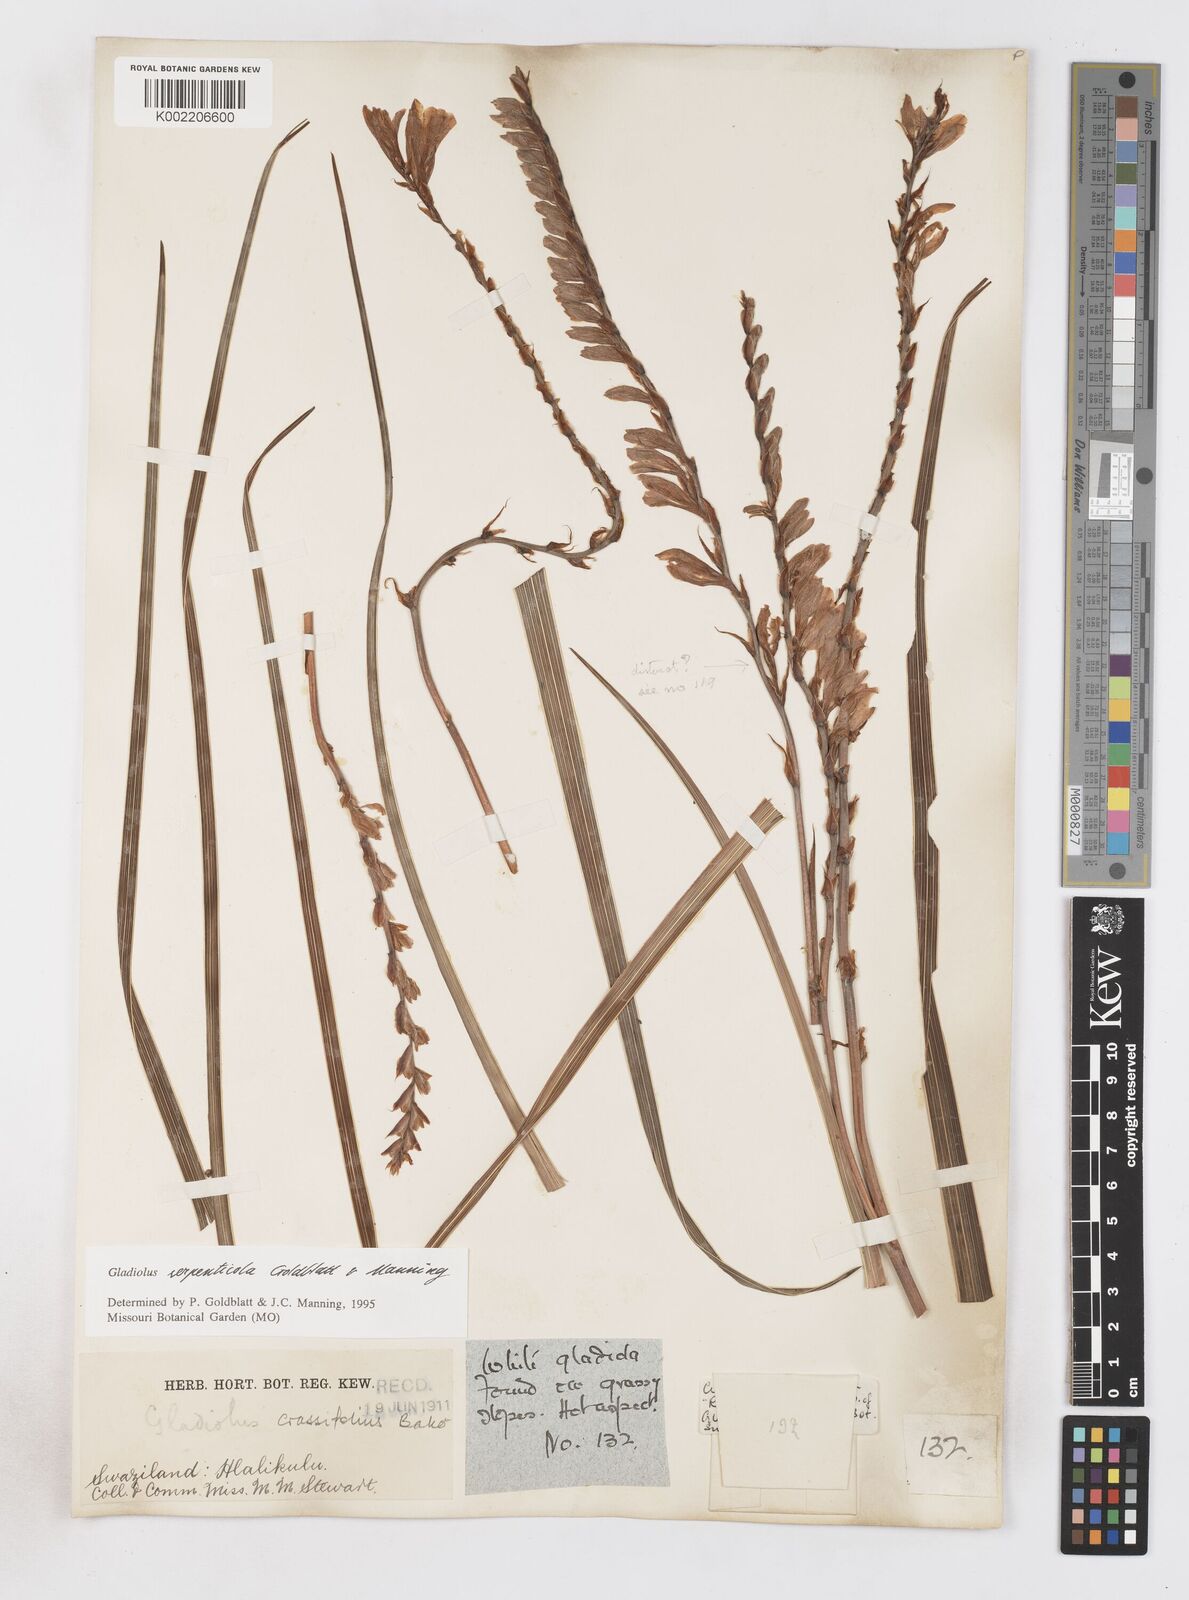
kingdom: Plantae
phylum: Tracheophyta
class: Liliopsida
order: Asparagales
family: Iridaceae
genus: Gladiolus
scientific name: Gladiolus serpenticola
